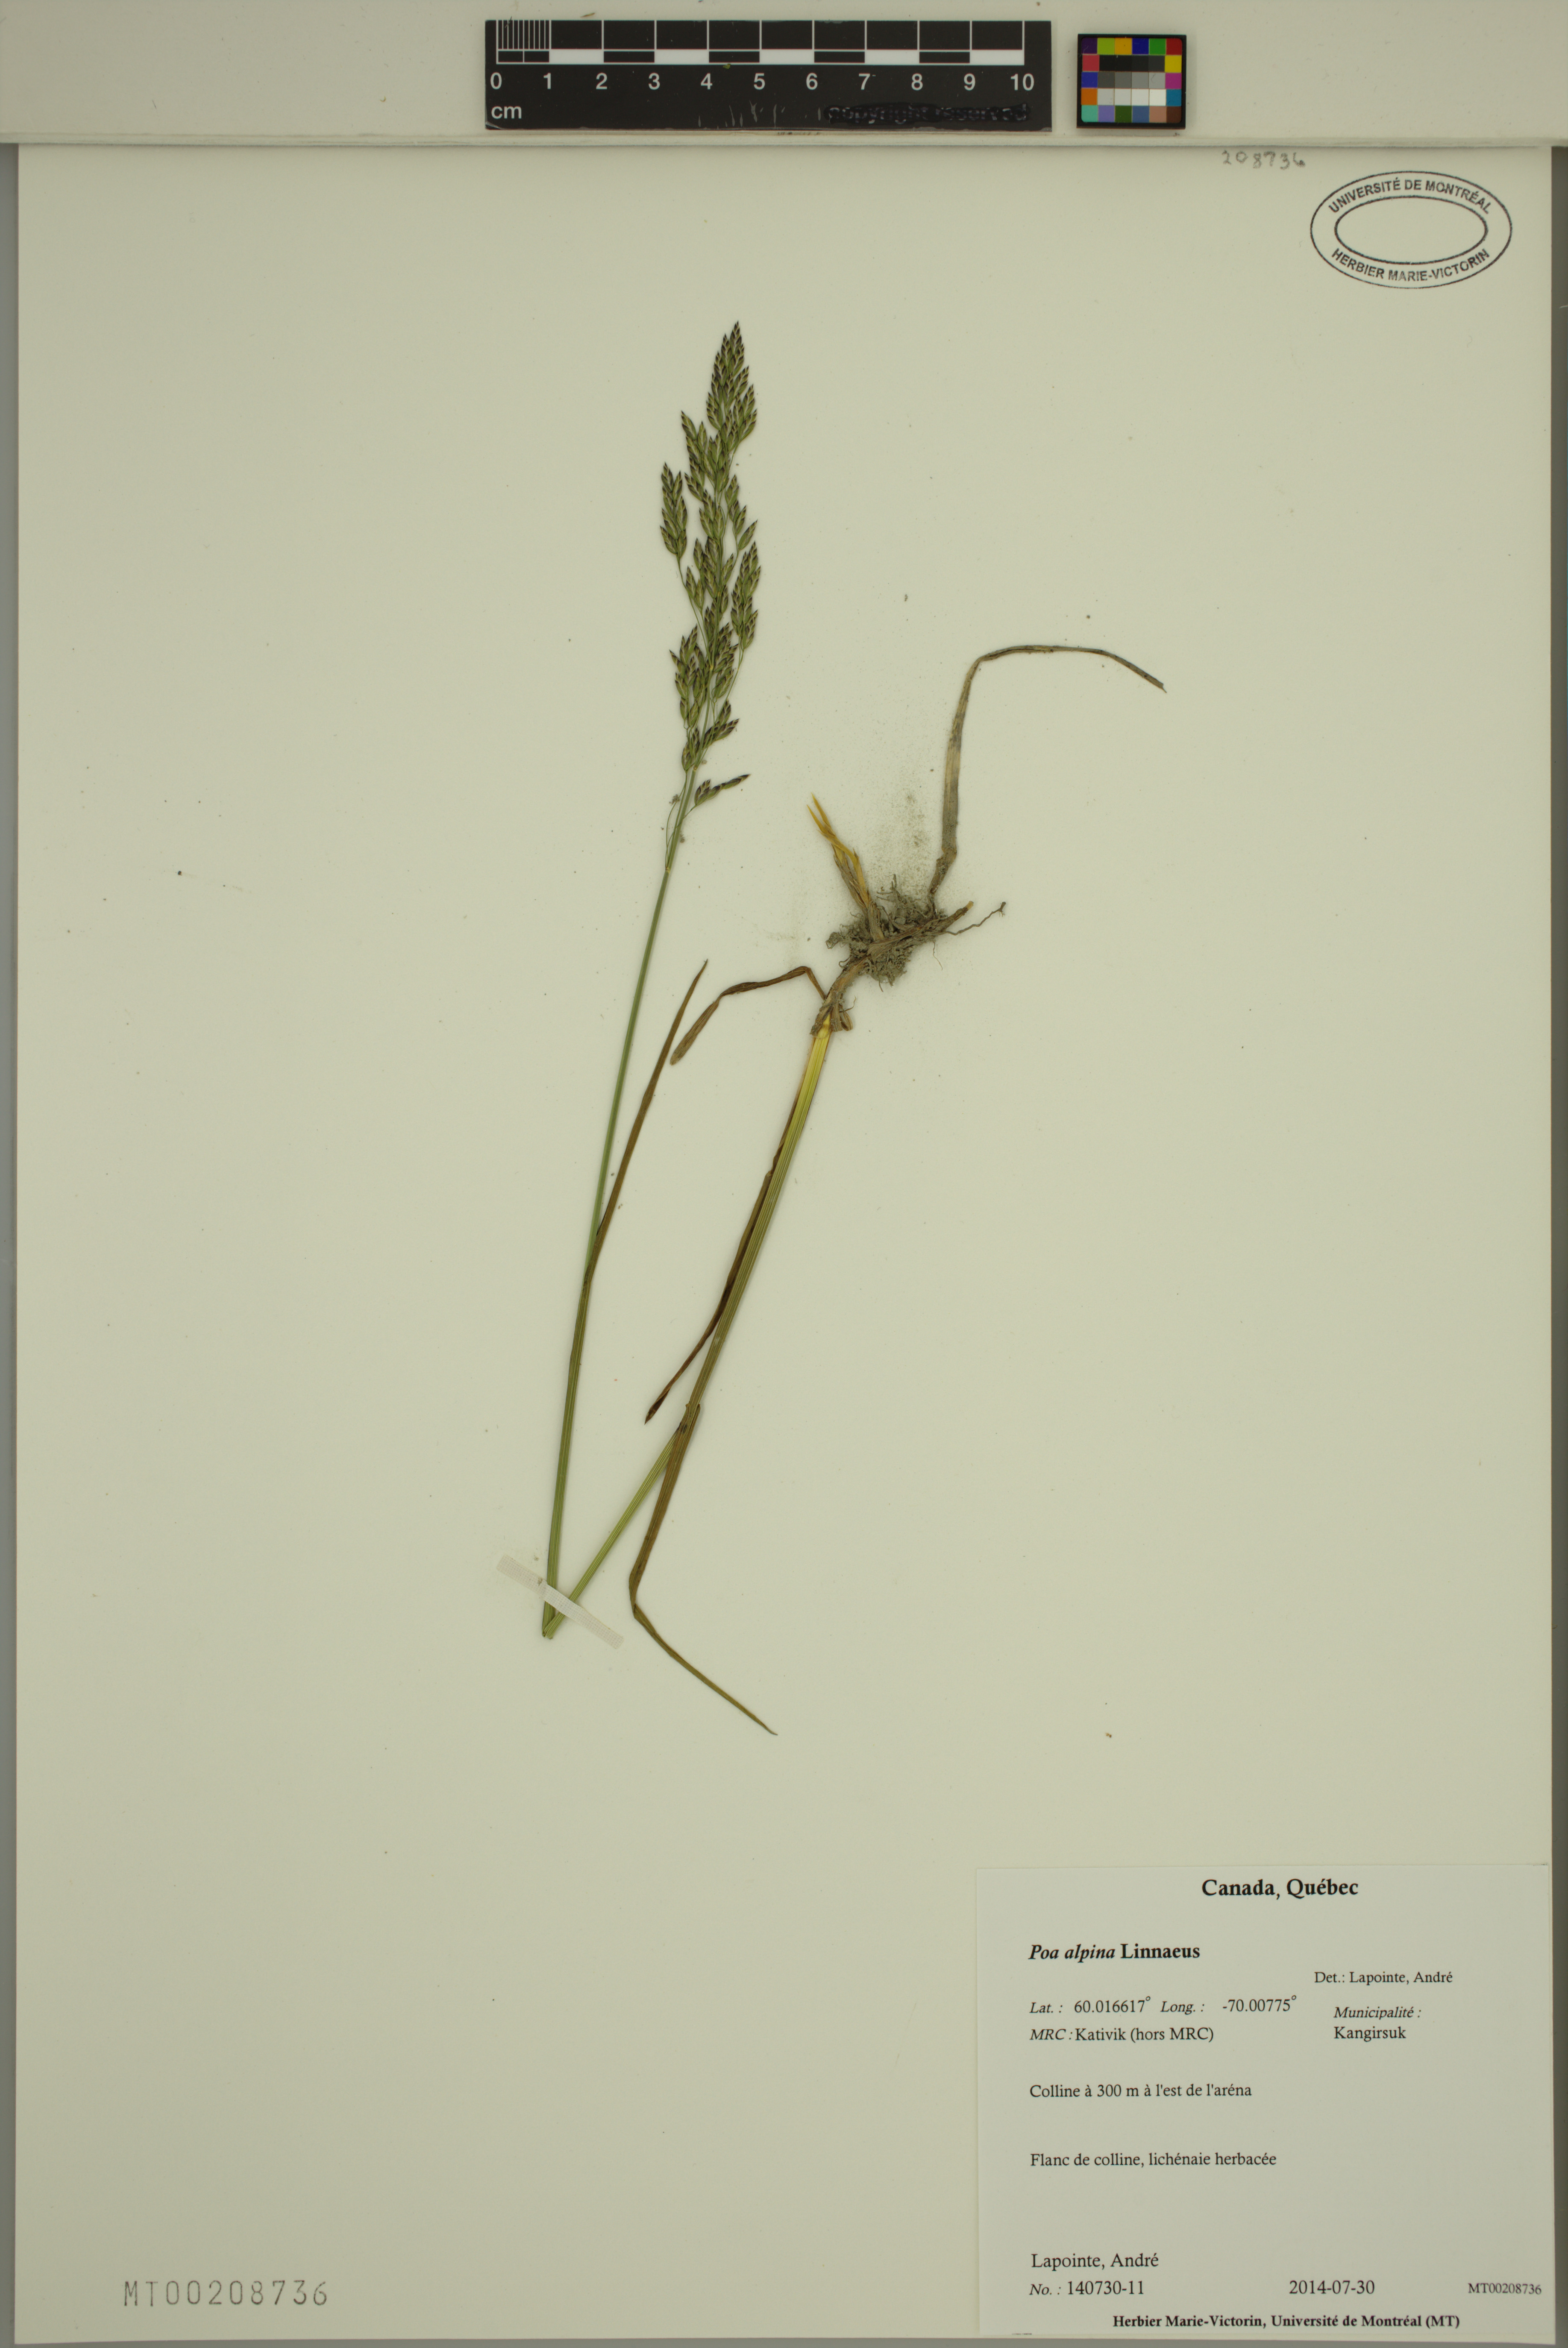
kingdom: Plantae
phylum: Tracheophyta
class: Liliopsida
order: Poales
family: Poaceae
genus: Poa
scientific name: Poa alpina
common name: Alpine bluegrass
